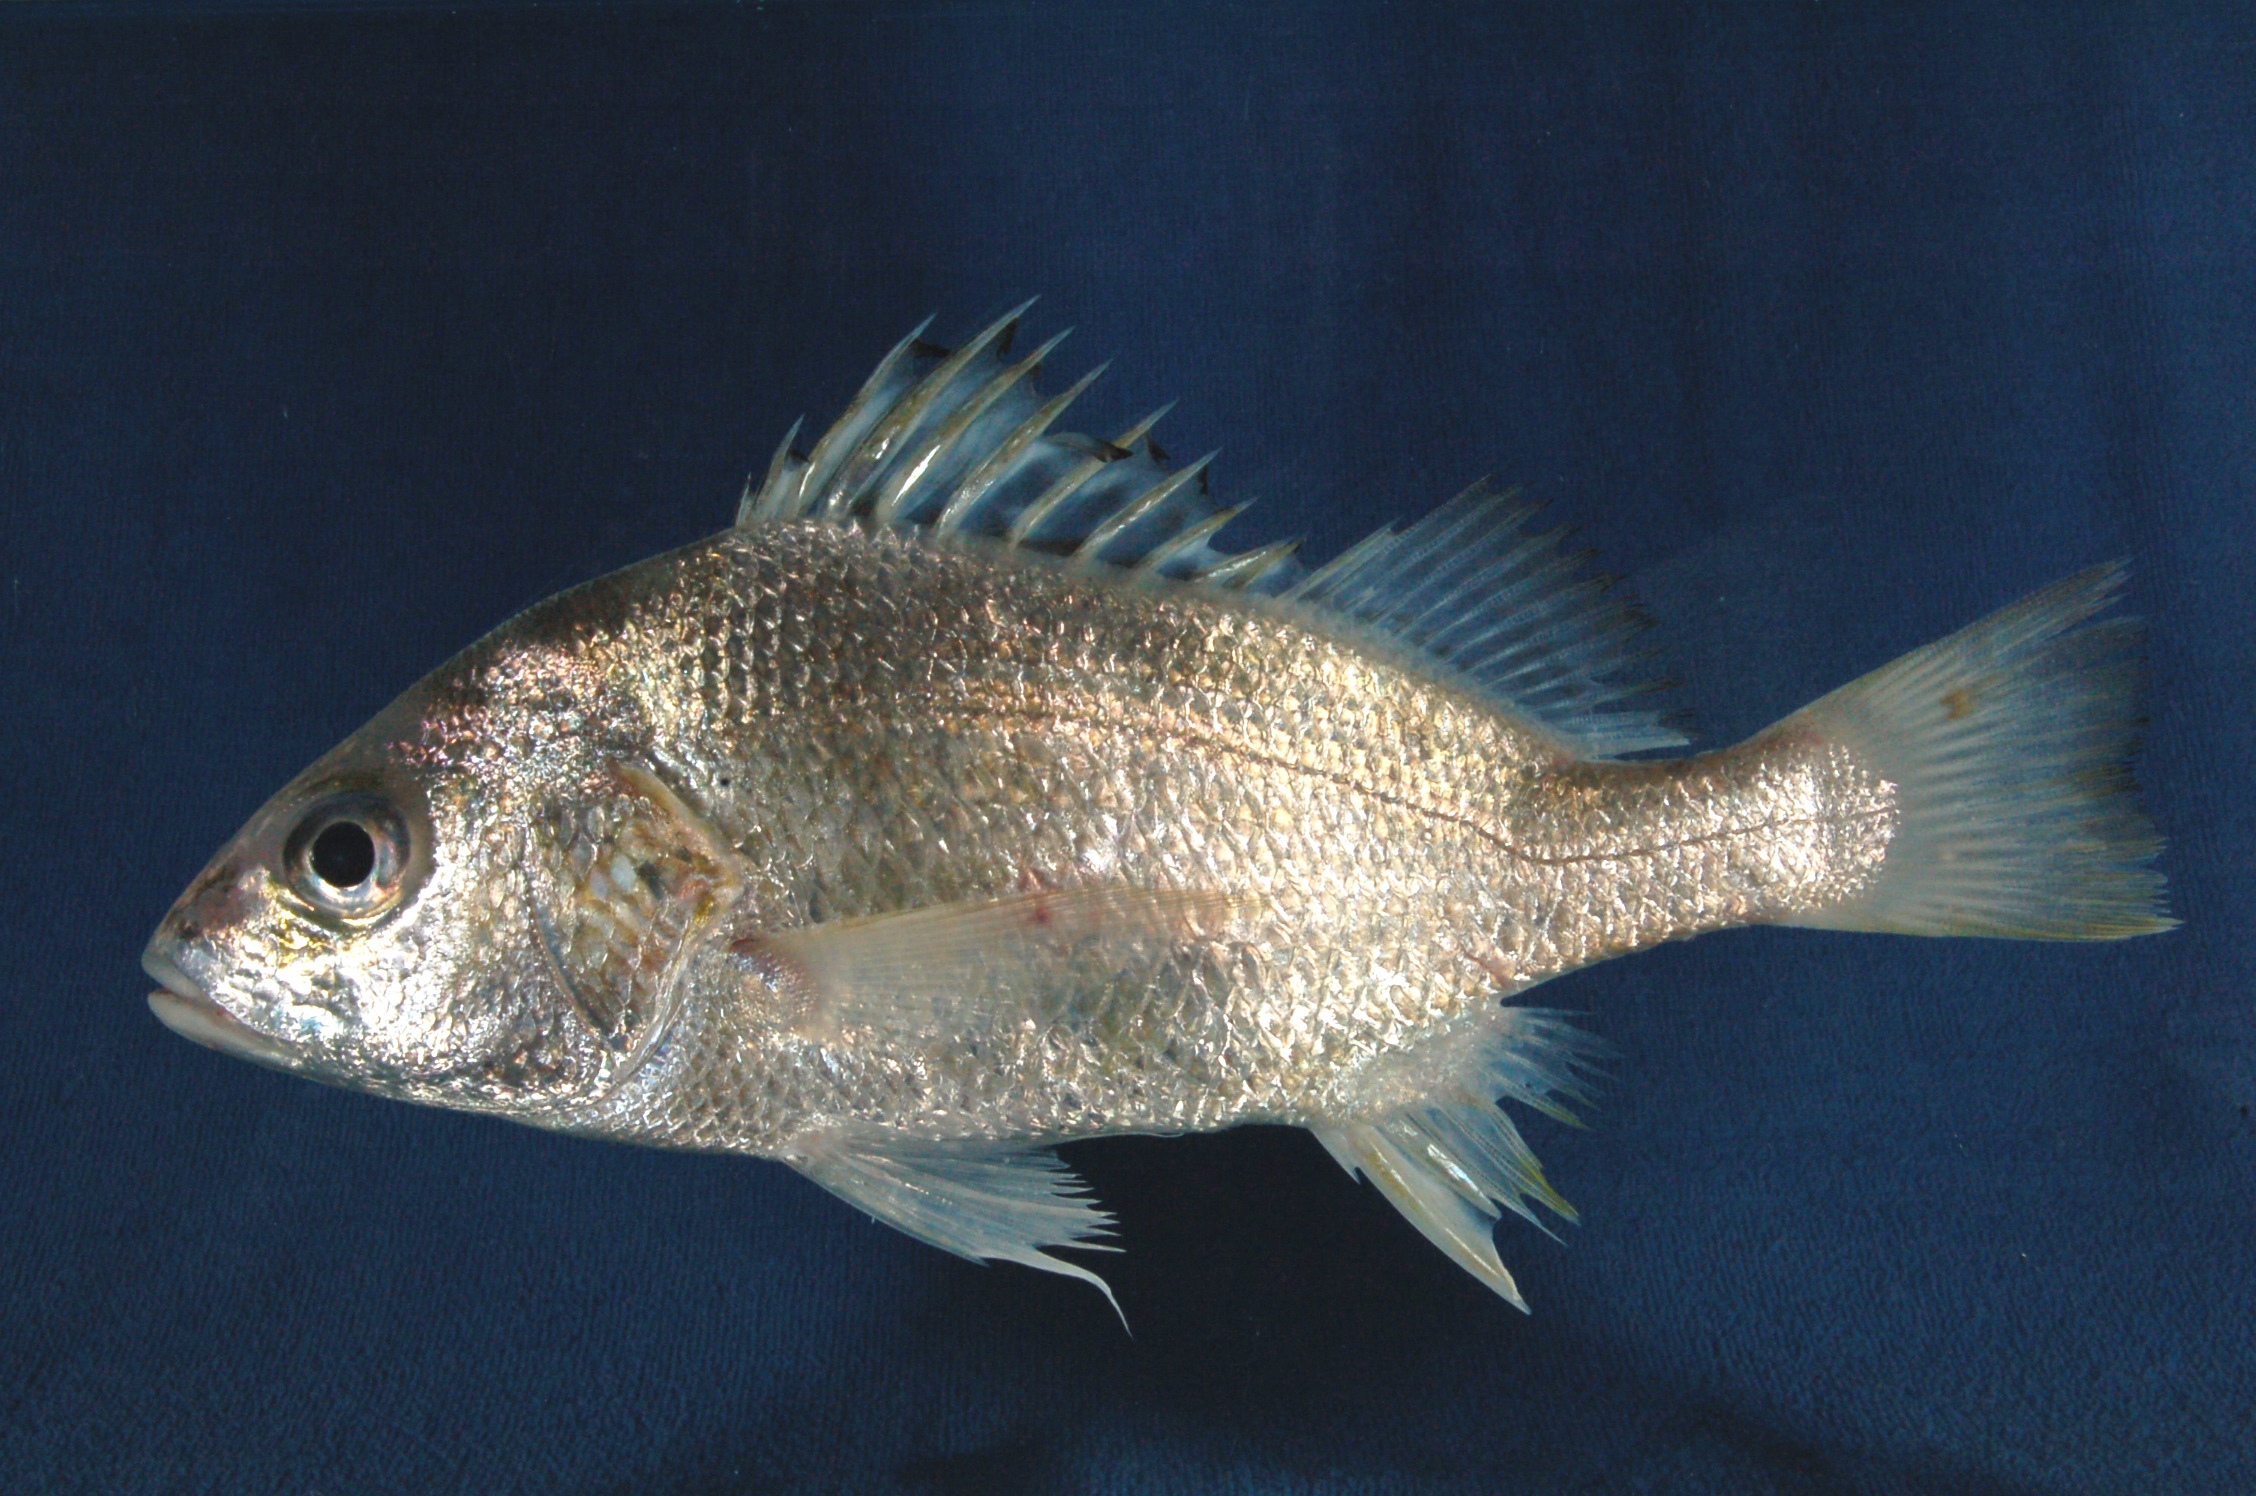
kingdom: Animalia
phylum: Chordata
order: Perciformes
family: Haemulidae
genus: Pomadasys
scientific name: Pomadasys kaakan
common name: Javelin grunter
